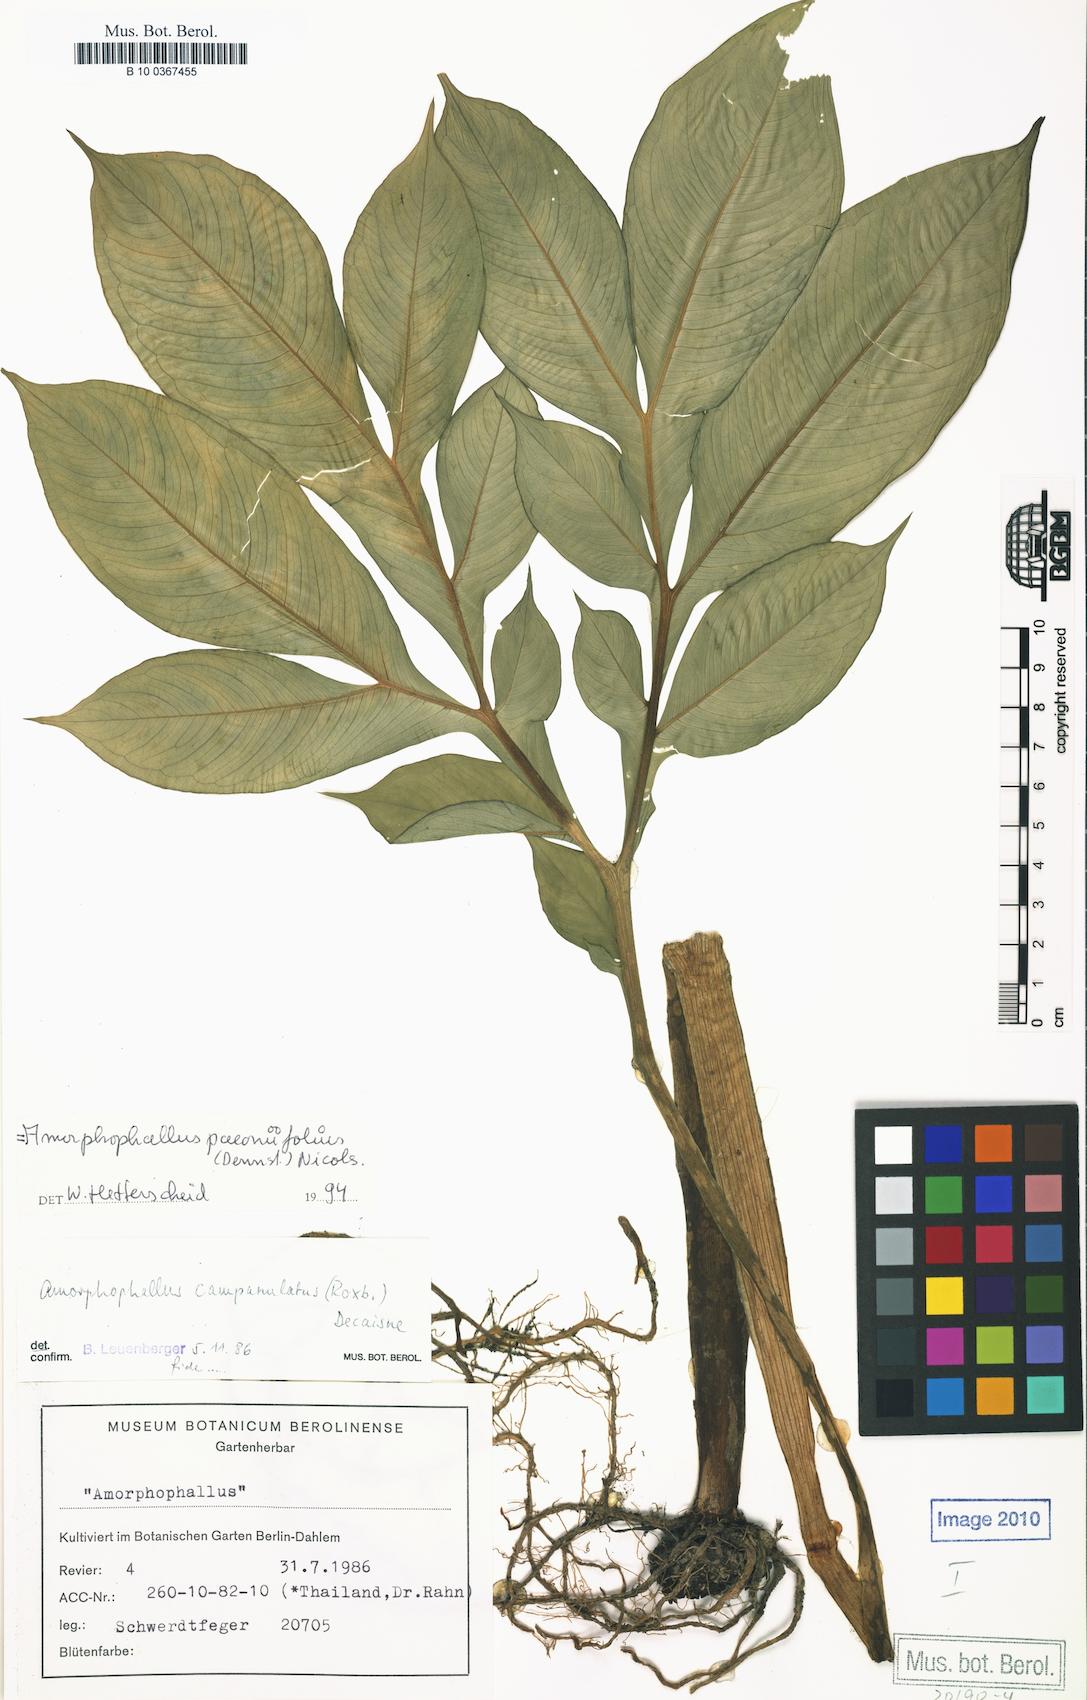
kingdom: Plantae
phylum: Tracheophyta
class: Liliopsida
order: Alismatales
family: Araceae
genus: Amorphophallus
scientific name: Amorphophallus paeoniifolius
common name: Telinga-potato
